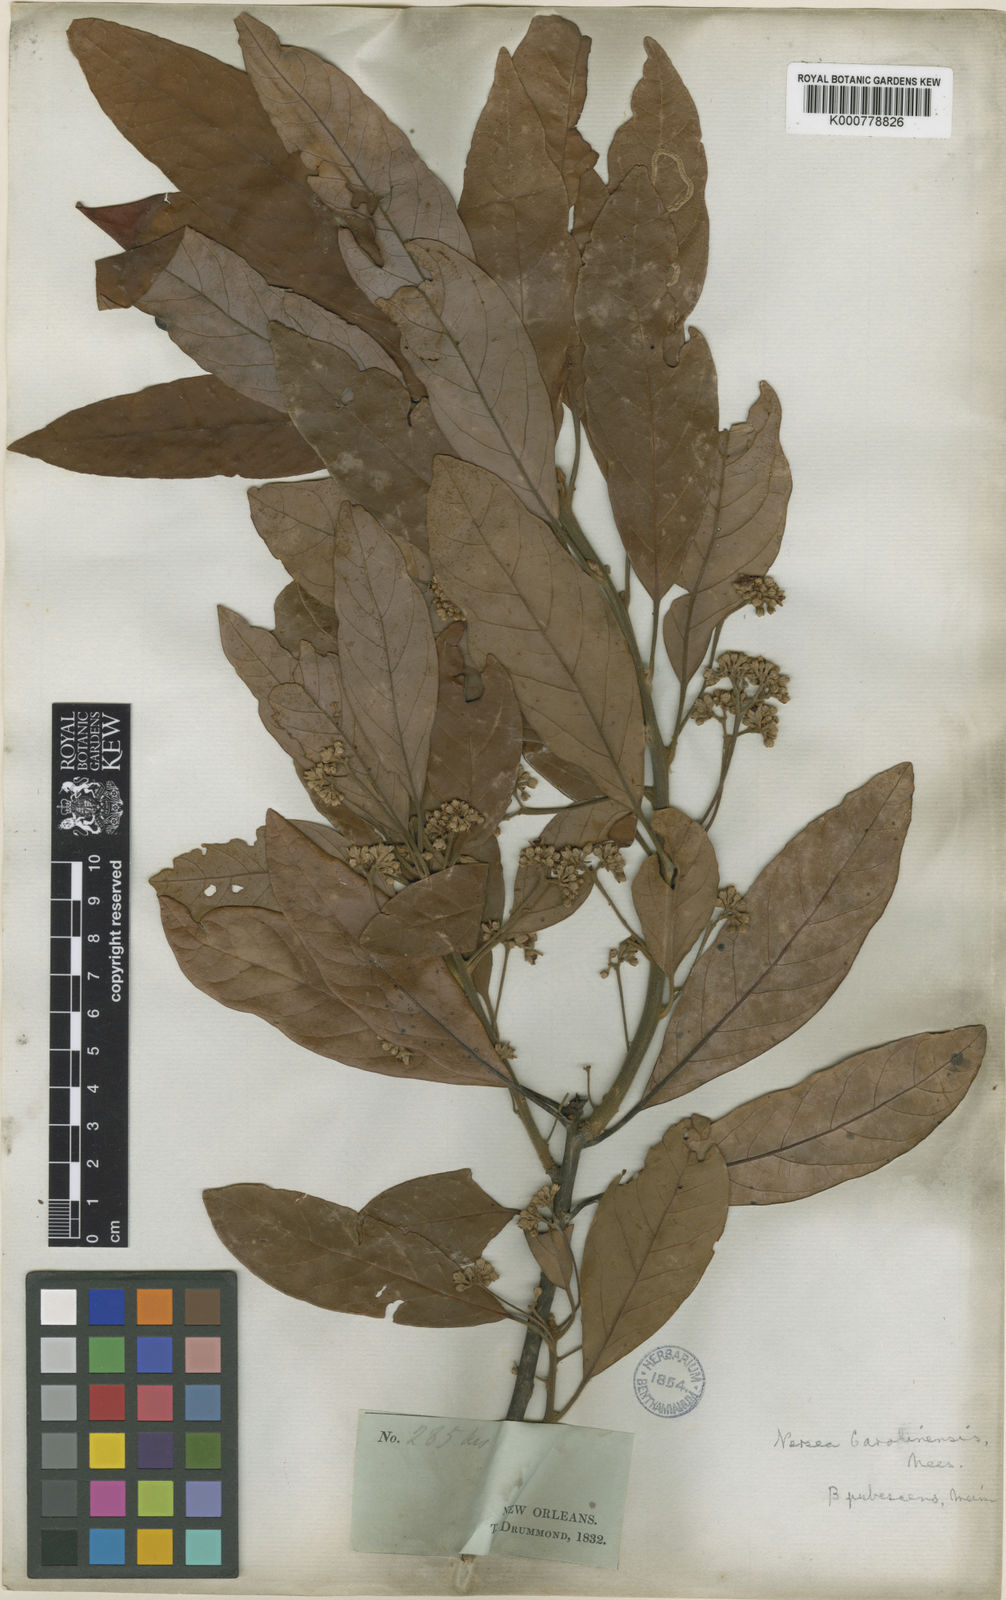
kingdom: Plantae
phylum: Tracheophyta
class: Magnoliopsida
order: Laurales
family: Lauraceae
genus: Persea
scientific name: Persea
